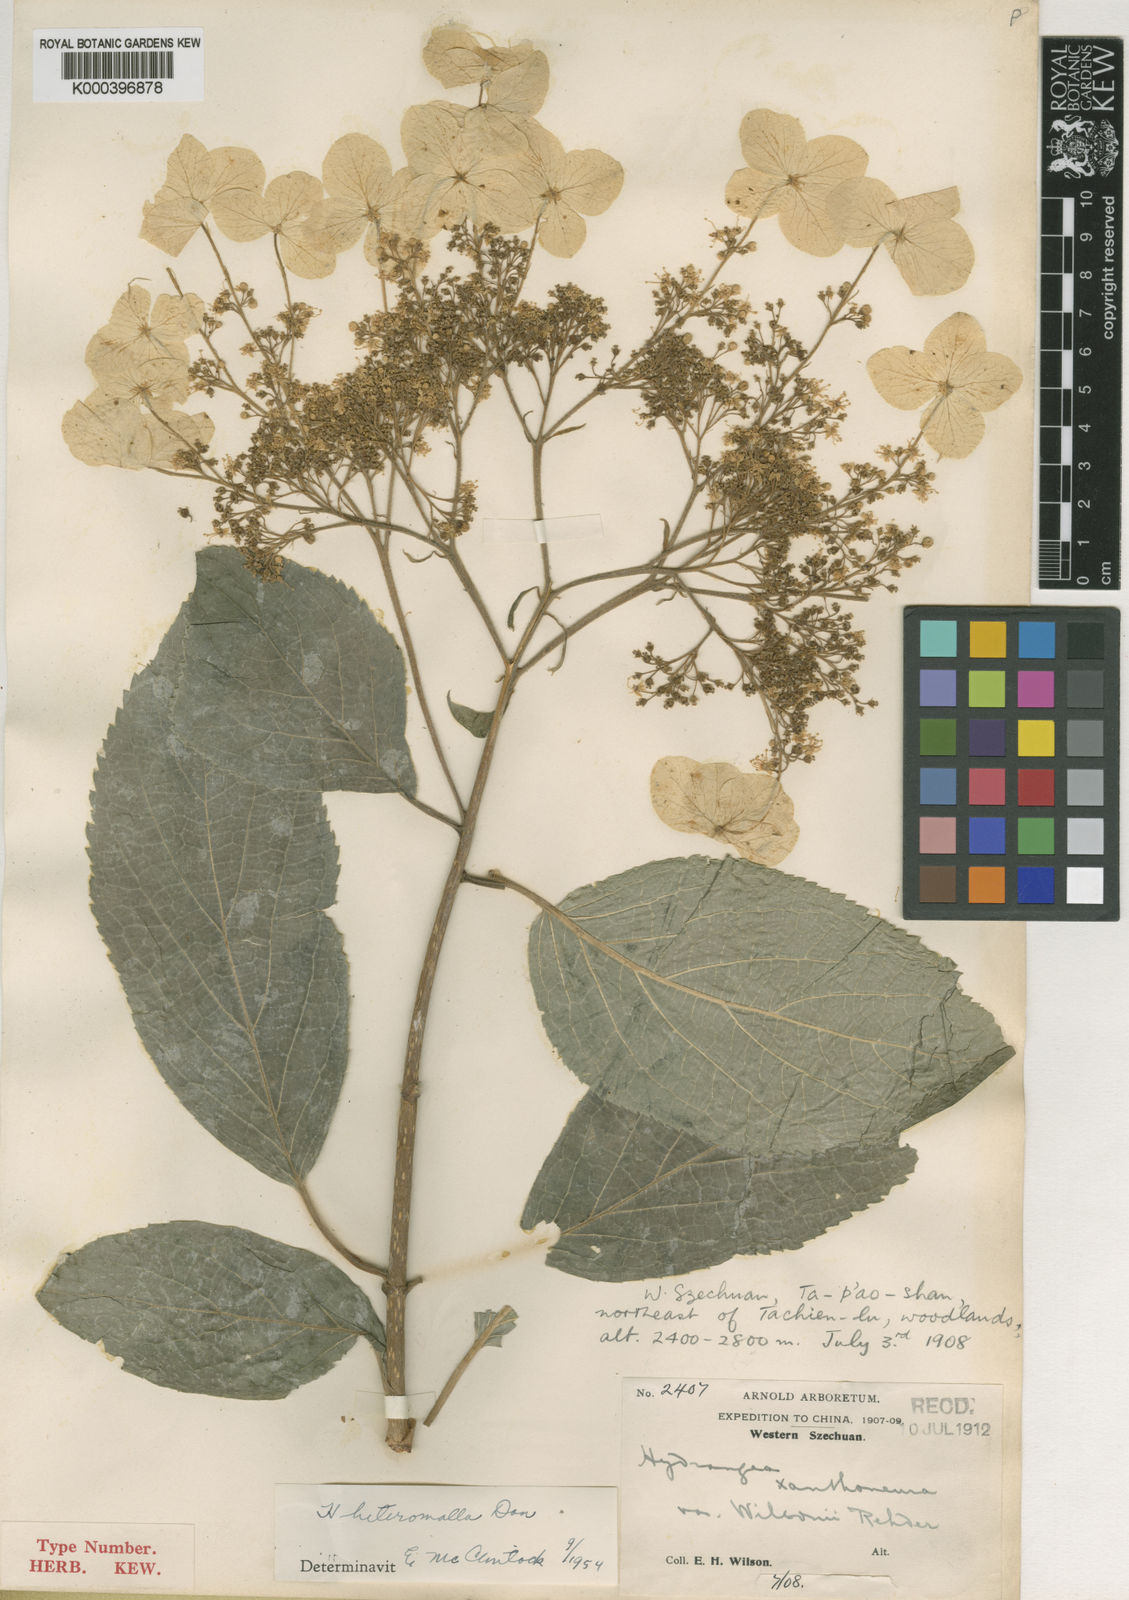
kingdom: Plantae
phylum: Tracheophyta
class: Magnoliopsida
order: Cornales
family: Hydrangeaceae
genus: Hydrangea
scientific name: Hydrangea heteromalla
